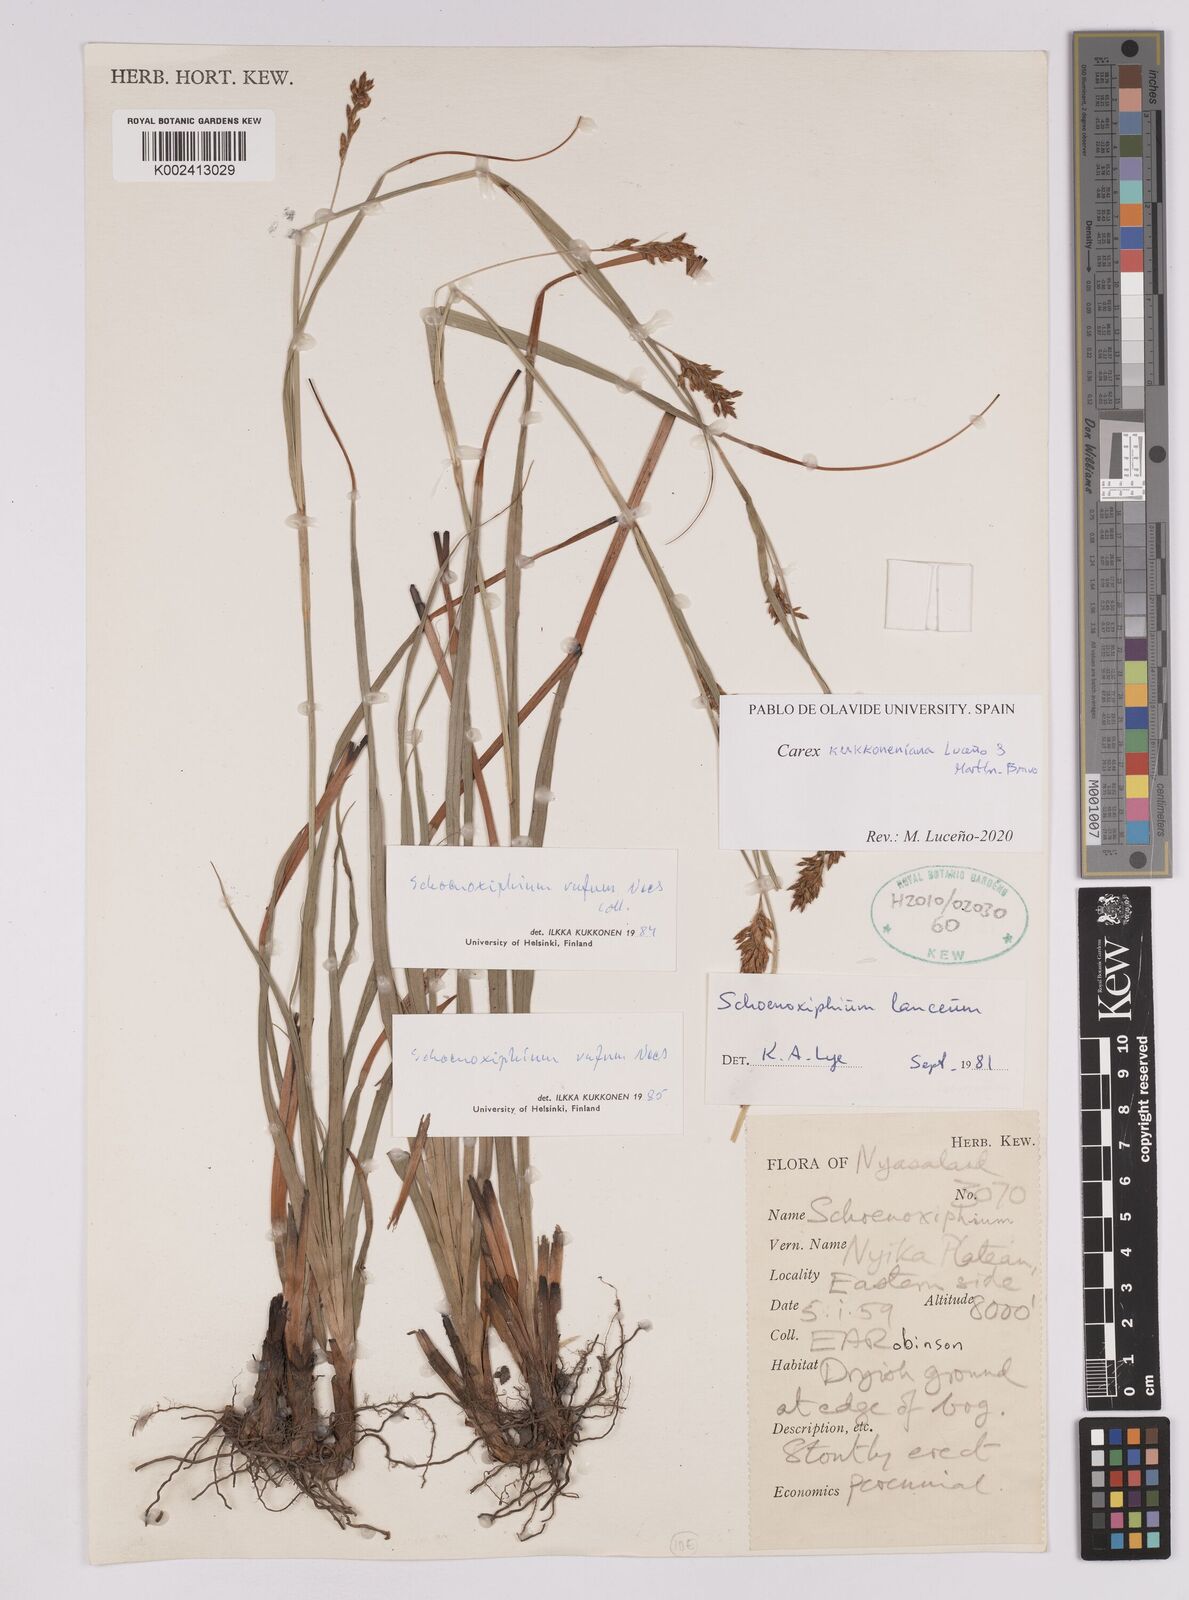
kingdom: Plantae
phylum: Tracheophyta
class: Liliopsida
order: Poales
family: Cyperaceae
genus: Carex
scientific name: Carex kukkoneniana
